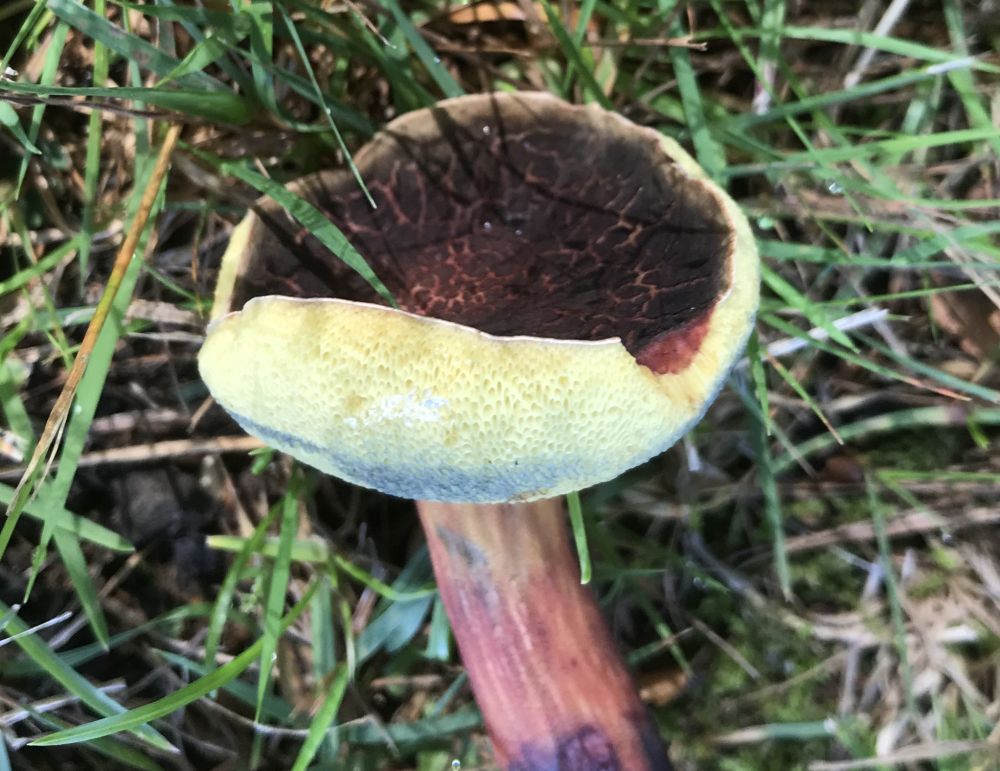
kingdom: Fungi
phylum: Basidiomycota
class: Agaricomycetes
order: Boletales
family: Boletaceae
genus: Xerocomellus
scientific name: Xerocomellus cisalpinus
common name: finsprukken rørhat
